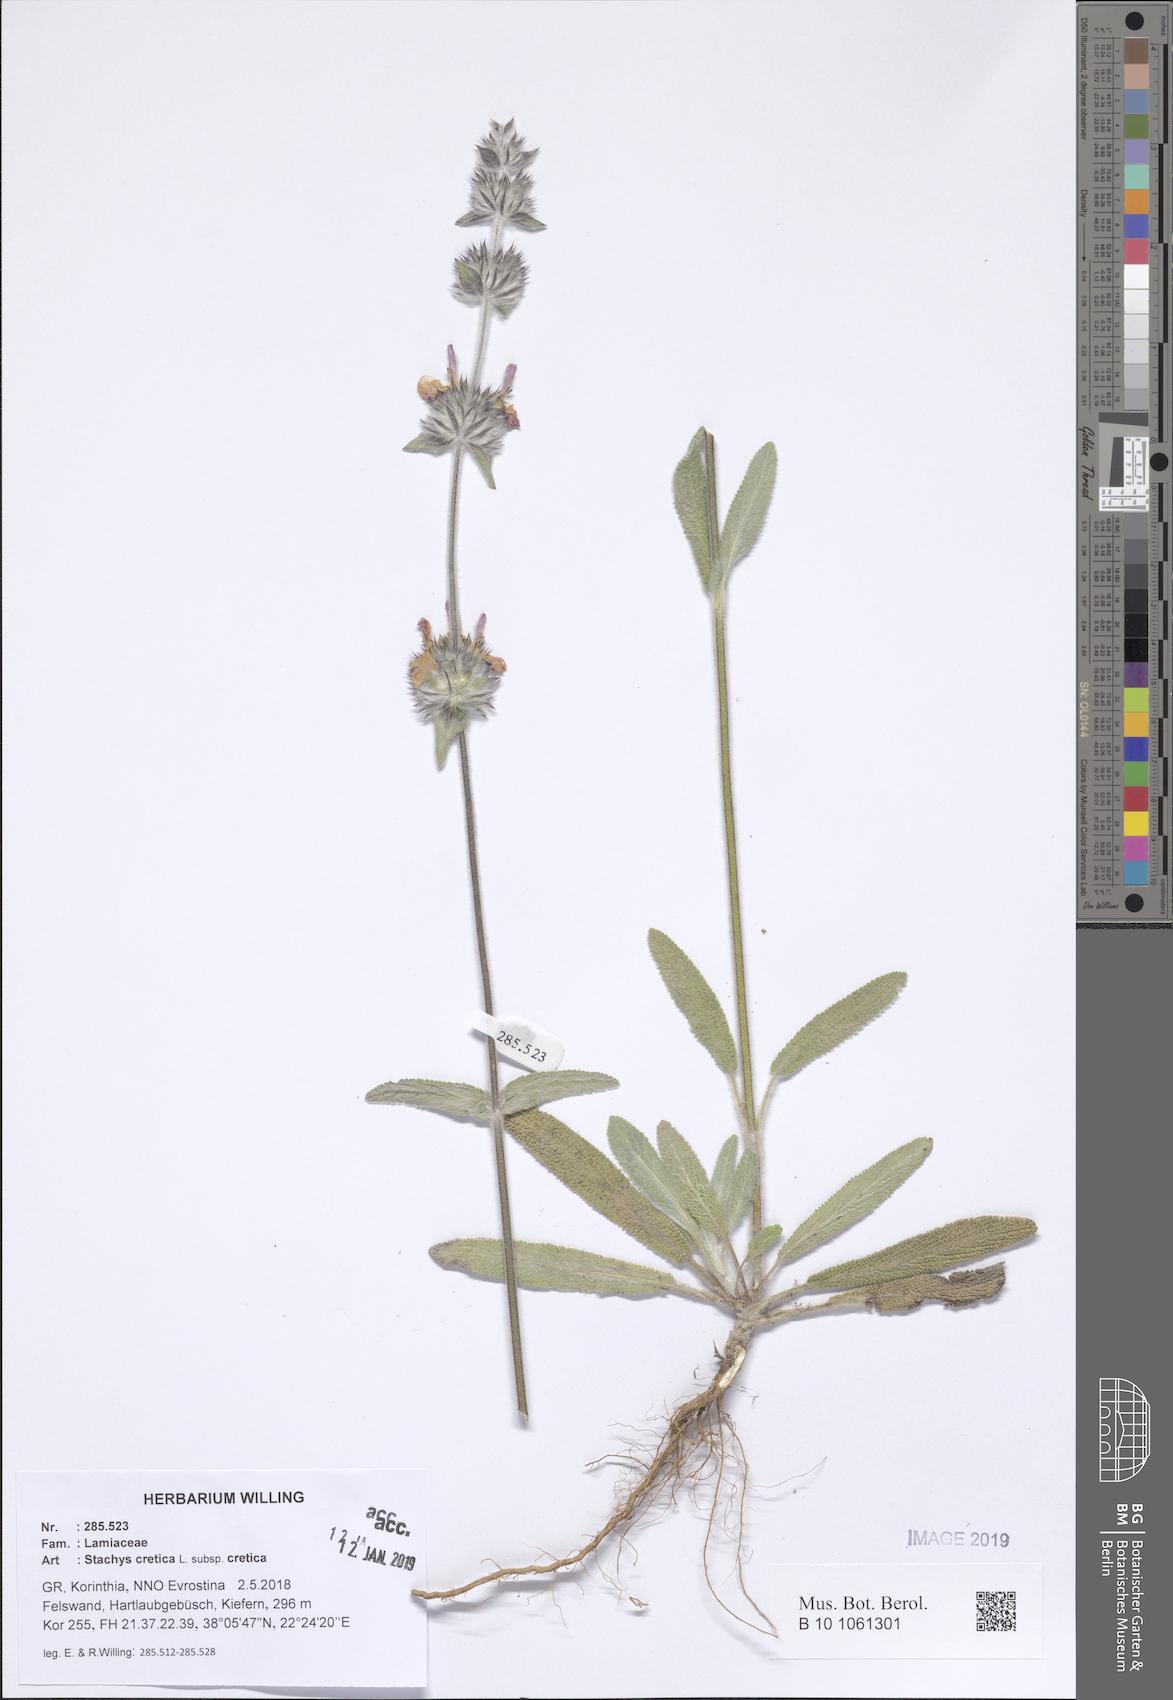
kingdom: Plantae
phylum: Tracheophyta
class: Magnoliopsida
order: Lamiales
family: Lamiaceae
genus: Stachys
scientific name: Stachys cretica
